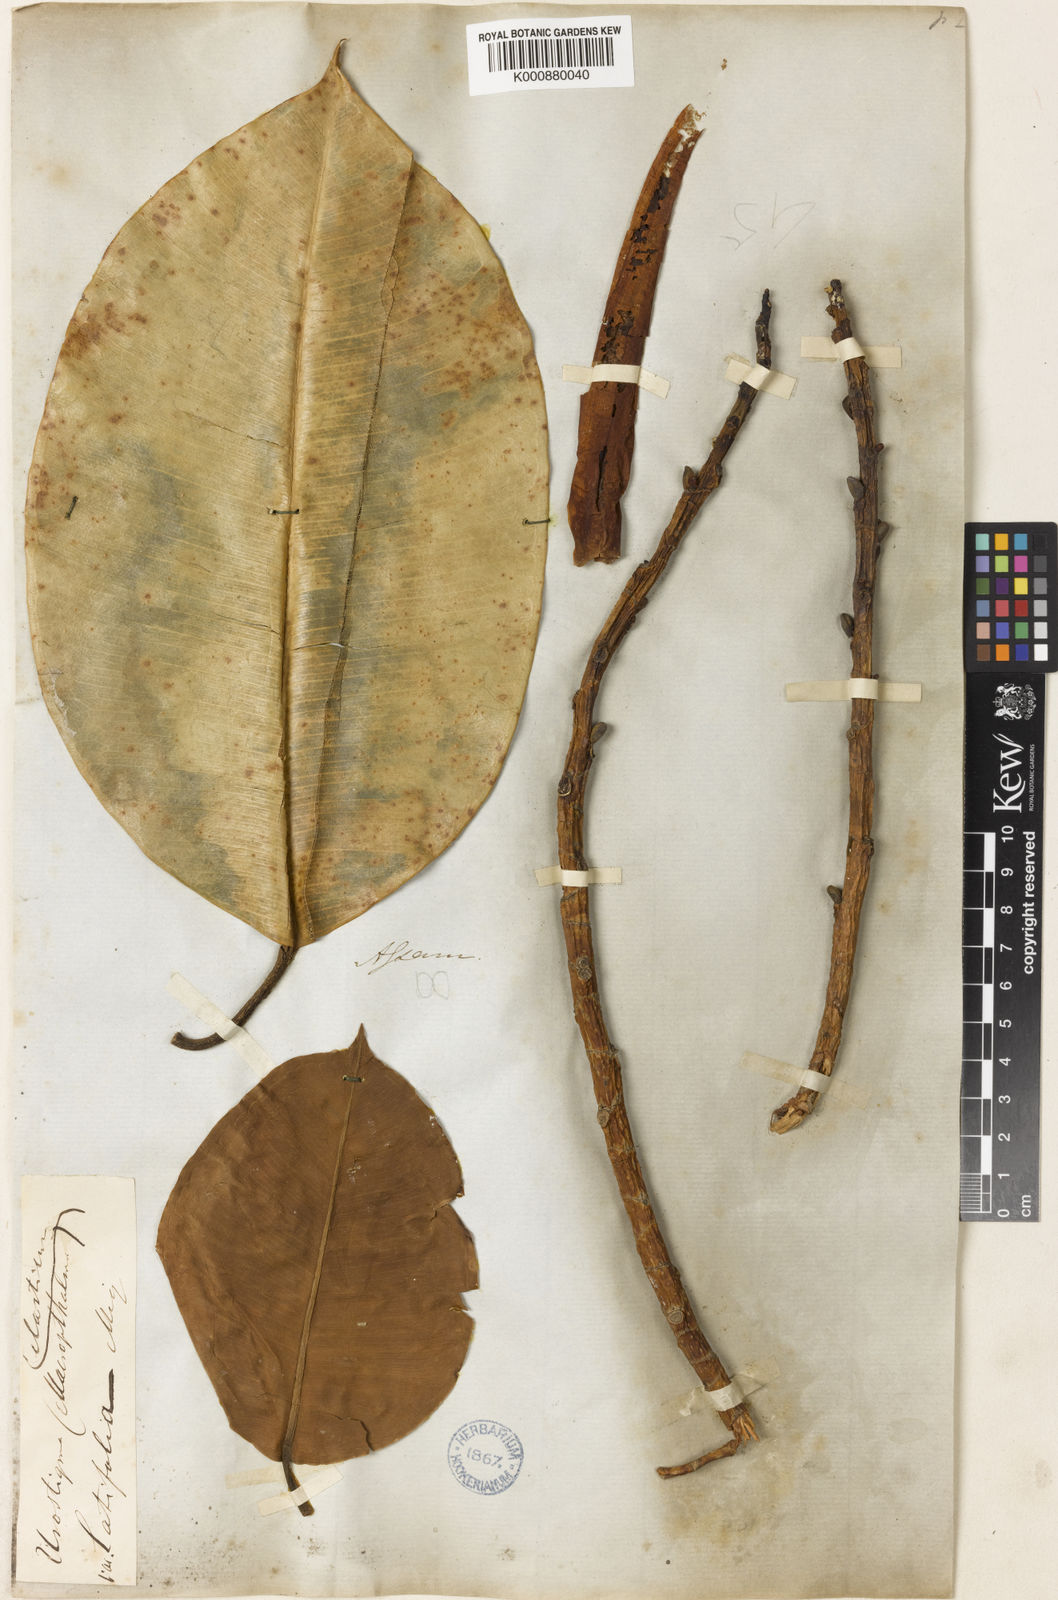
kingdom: Plantae
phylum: Tracheophyta
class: Magnoliopsida
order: Rosales
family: Moraceae
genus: Ficus
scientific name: Ficus
